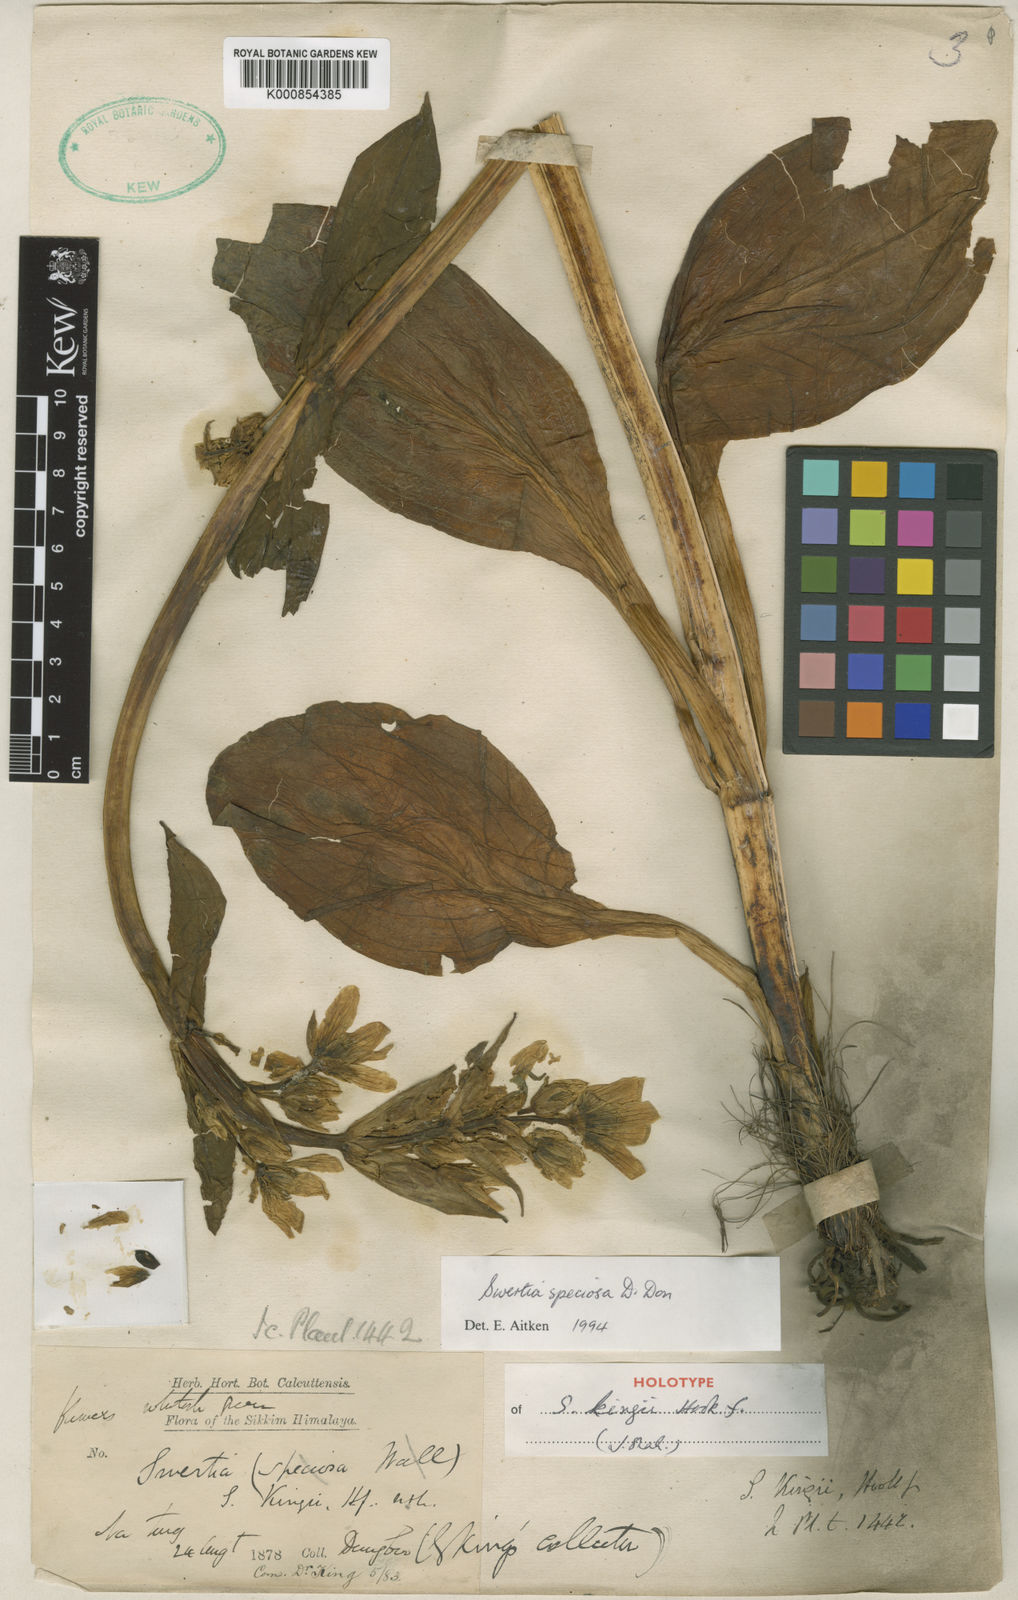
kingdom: Plantae
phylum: Tracheophyta
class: Magnoliopsida
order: Gentianales
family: Gentianaceae
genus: Swertia
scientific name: Swertia speciosa
